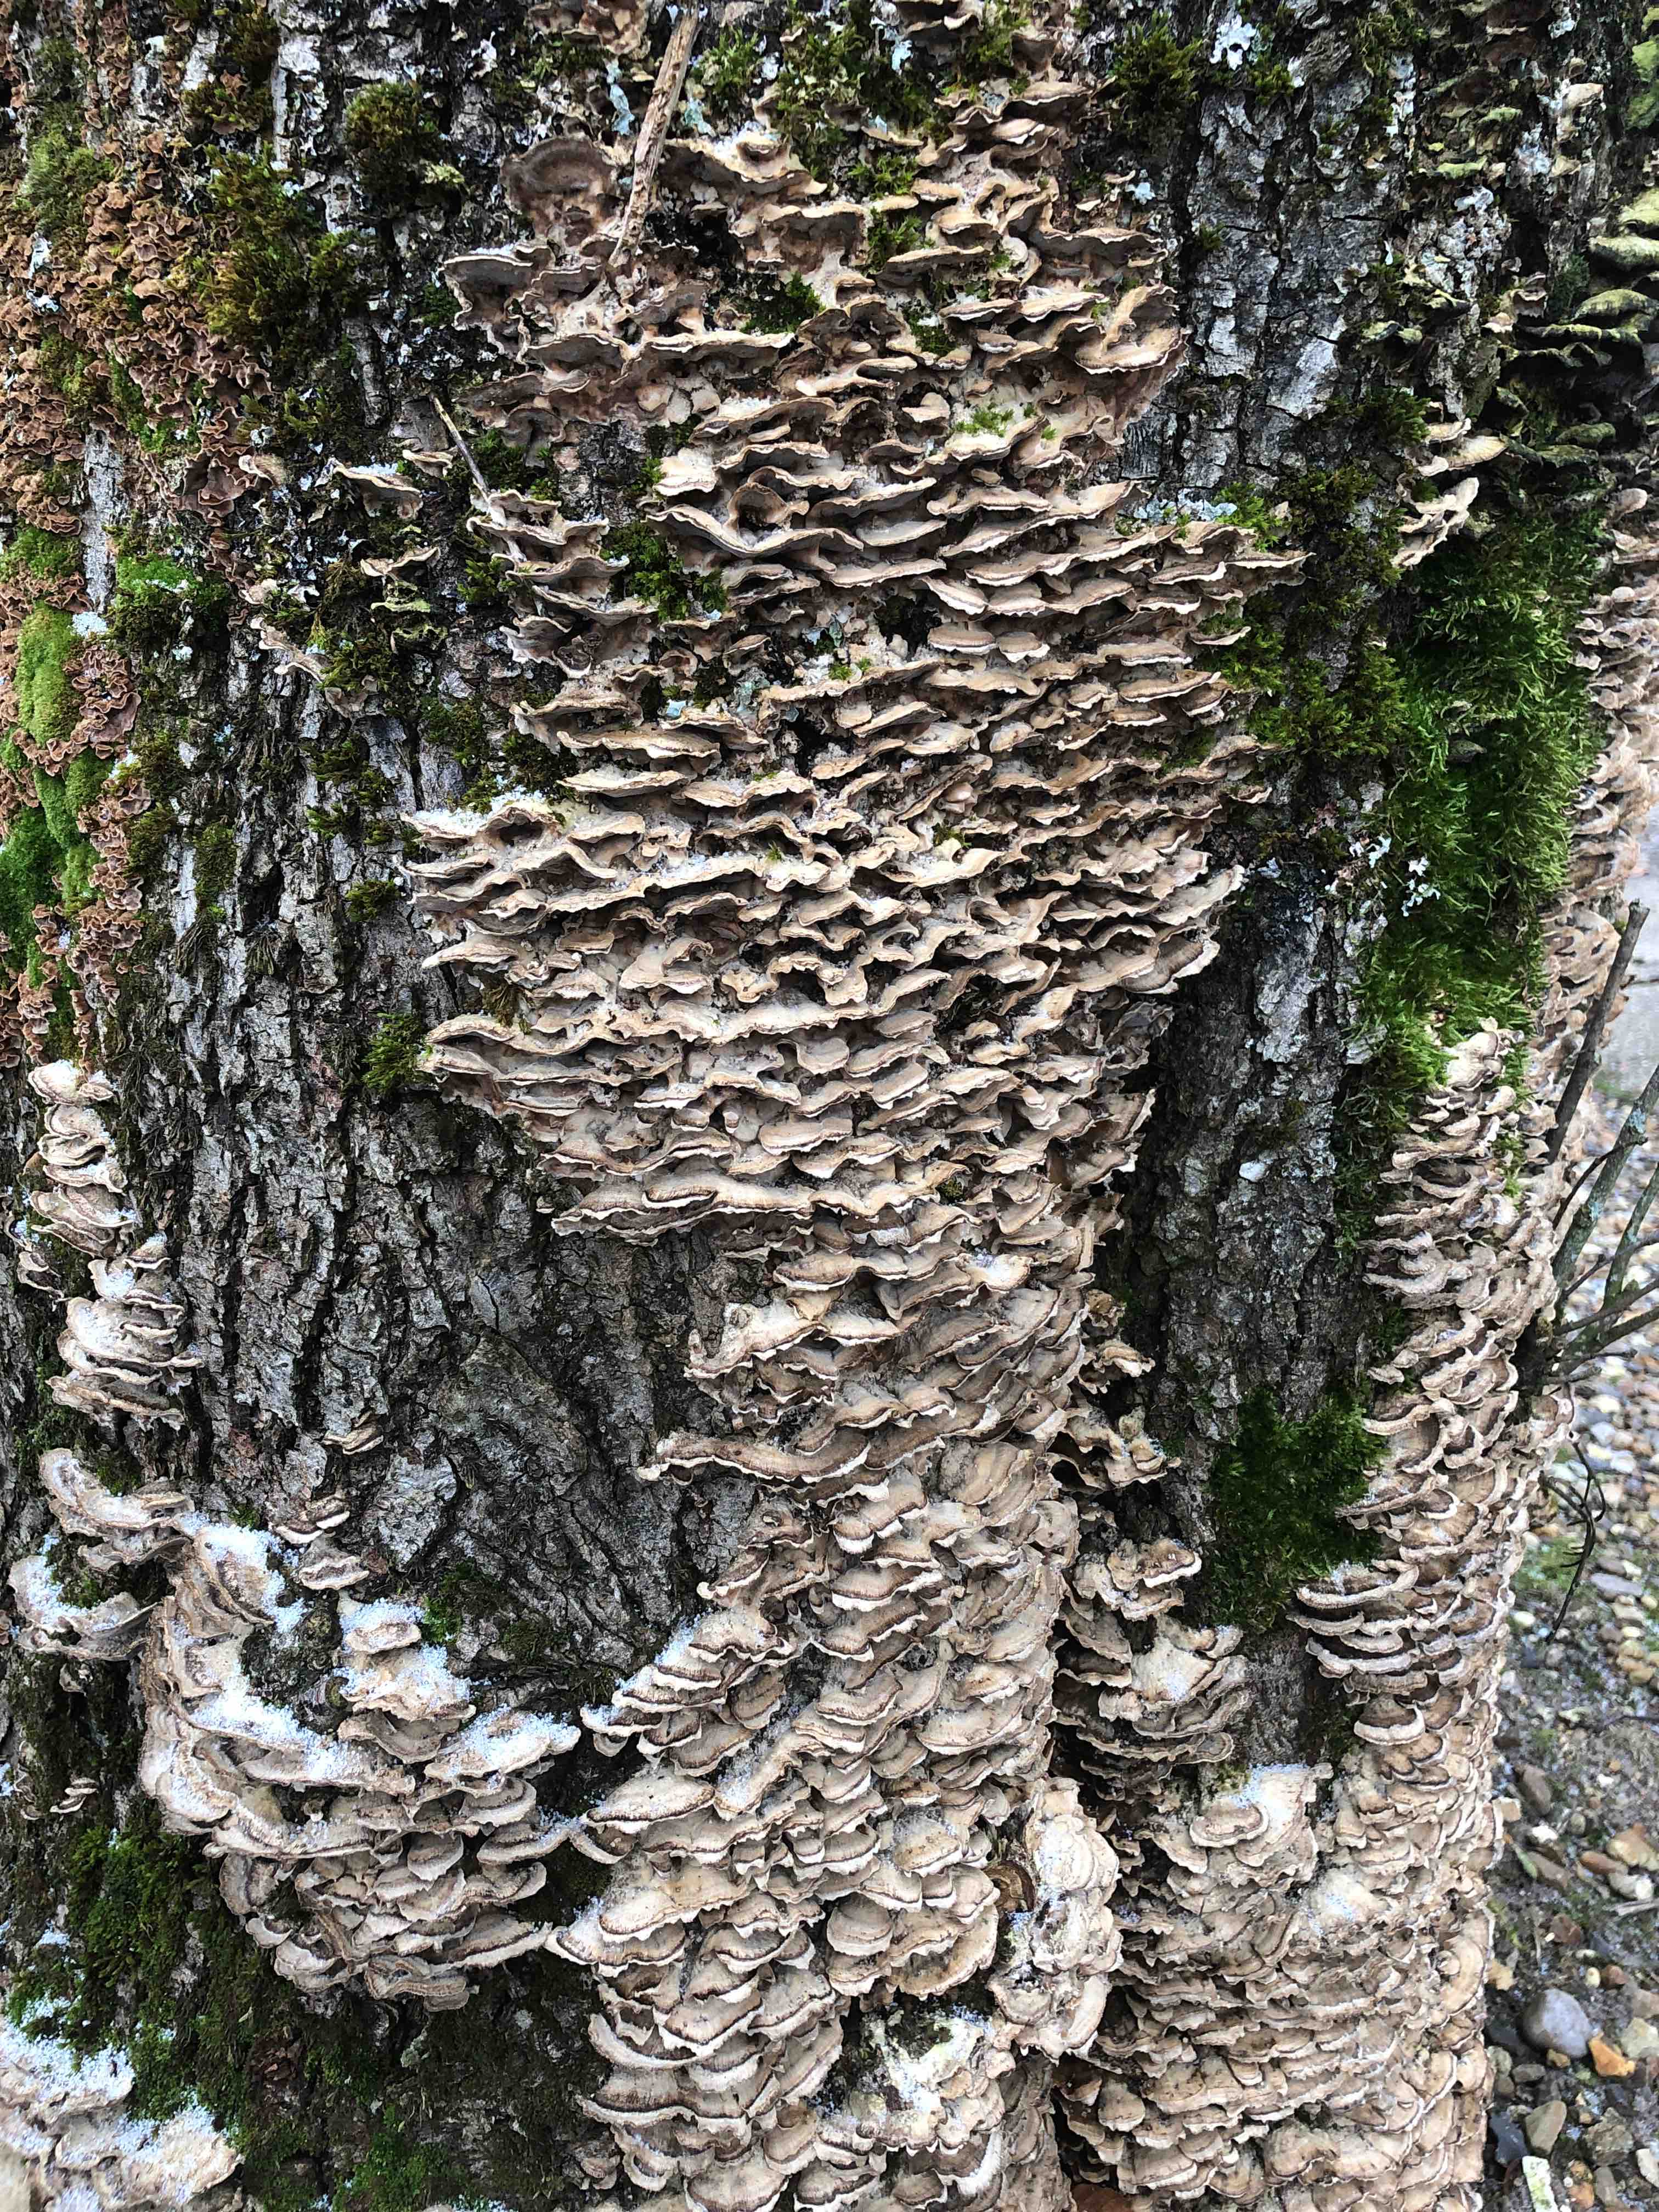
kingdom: Fungi
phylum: Basidiomycota
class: Agaricomycetes
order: Agaricales
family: Cyphellaceae
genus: Chondrostereum
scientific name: Chondrostereum purpureum
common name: purpurlædersvamp
